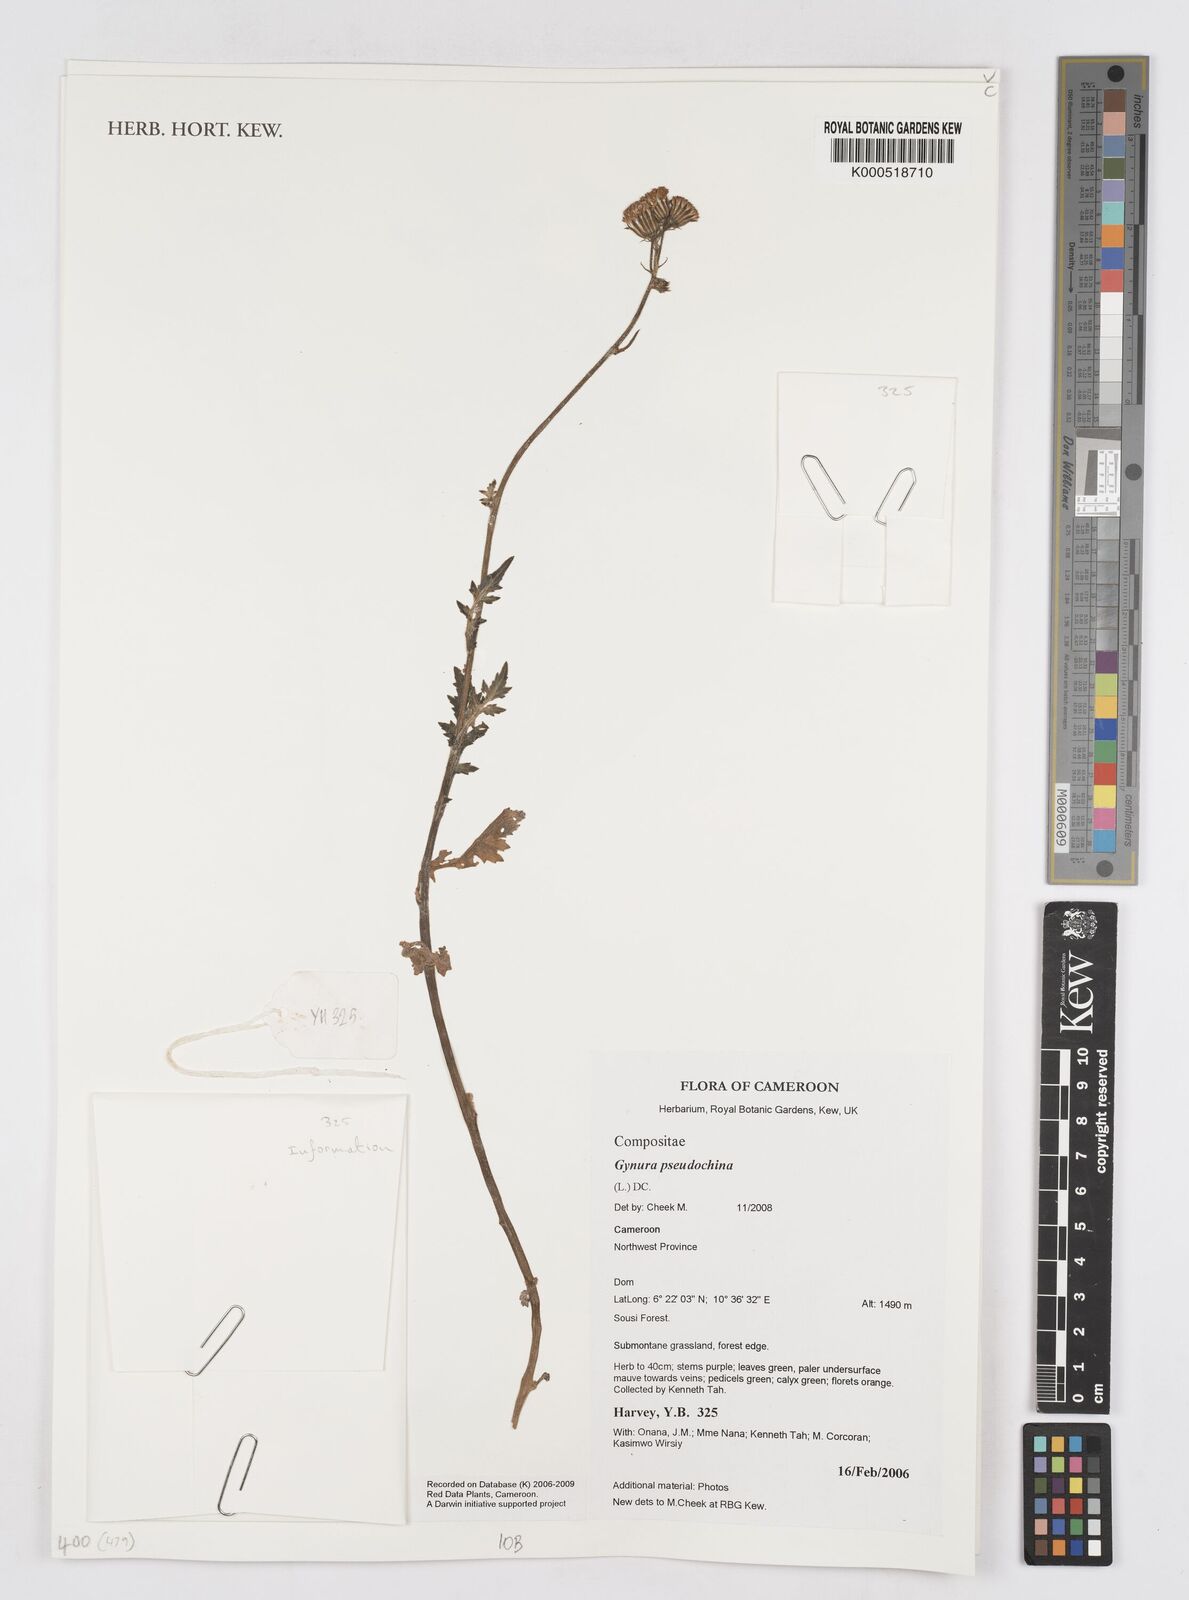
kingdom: Plantae
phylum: Tracheophyta
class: Magnoliopsida
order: Asterales
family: Asteraceae
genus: Gynura
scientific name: Gynura pseudochina
